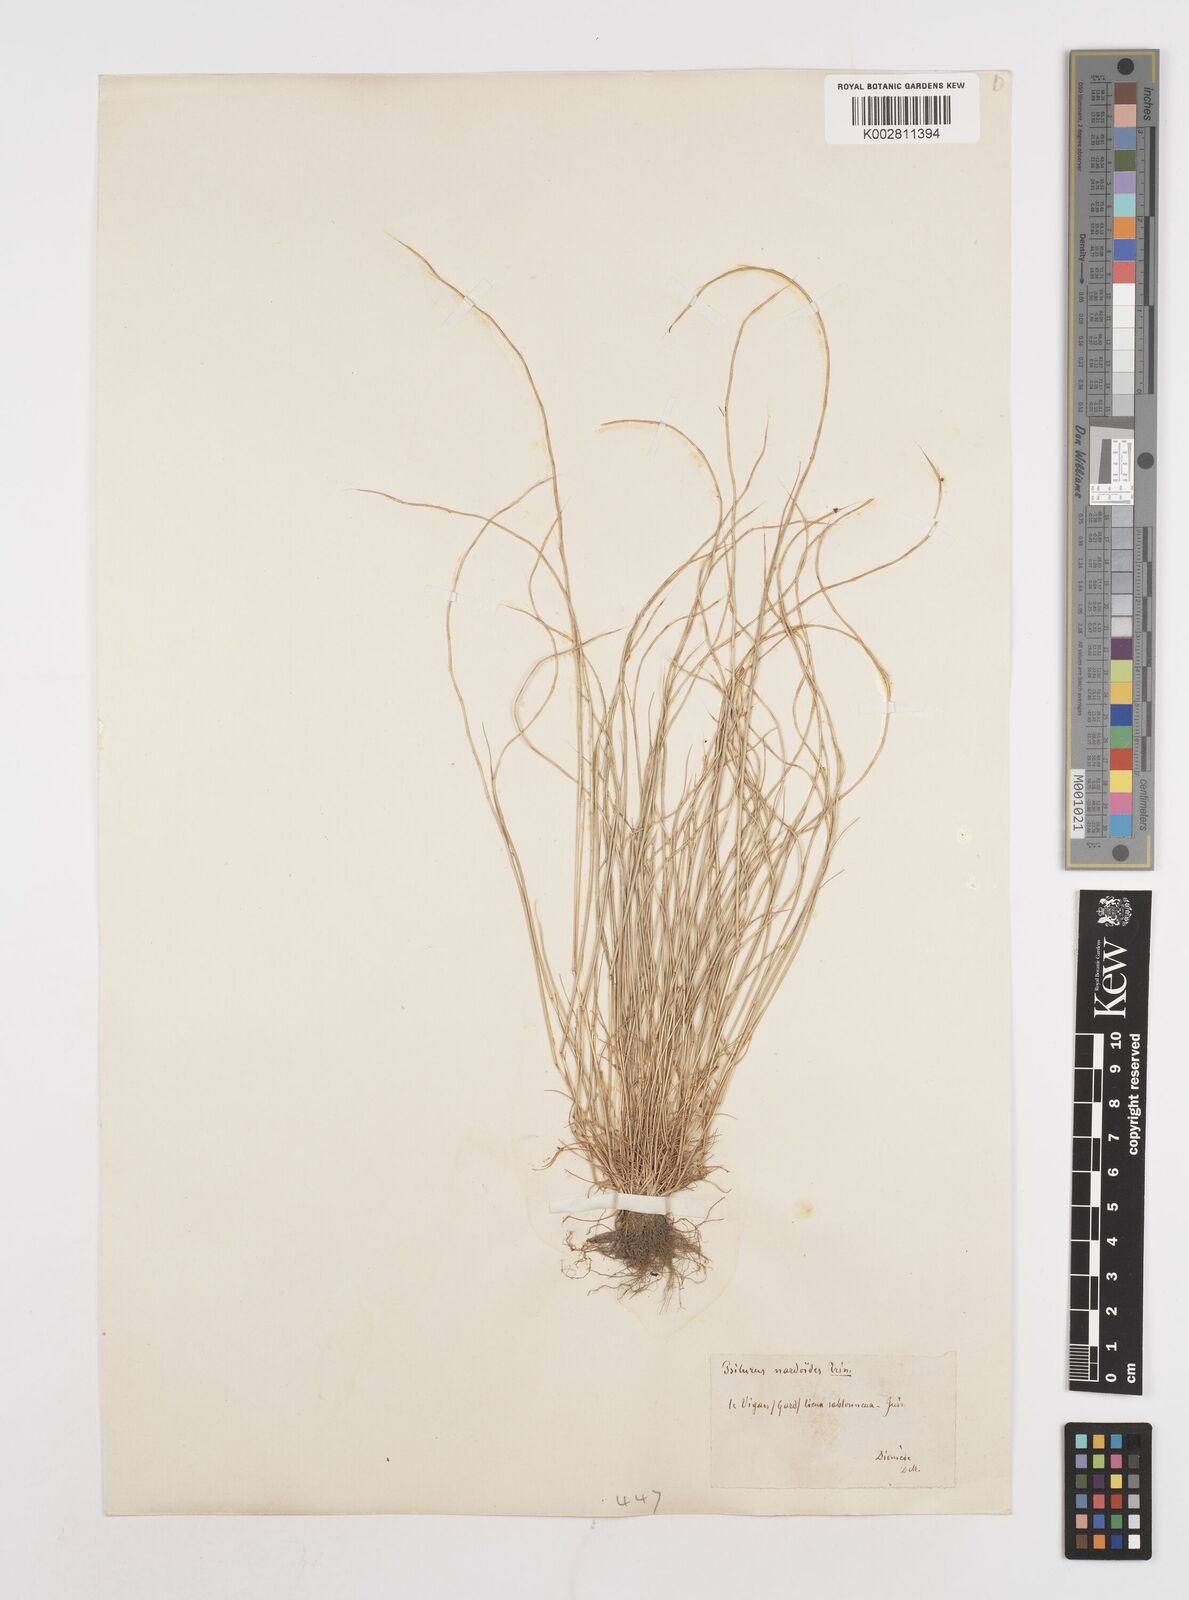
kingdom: Plantae
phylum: Tracheophyta
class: Liliopsida
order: Poales
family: Poaceae
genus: Festuca
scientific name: Festuca incurva
